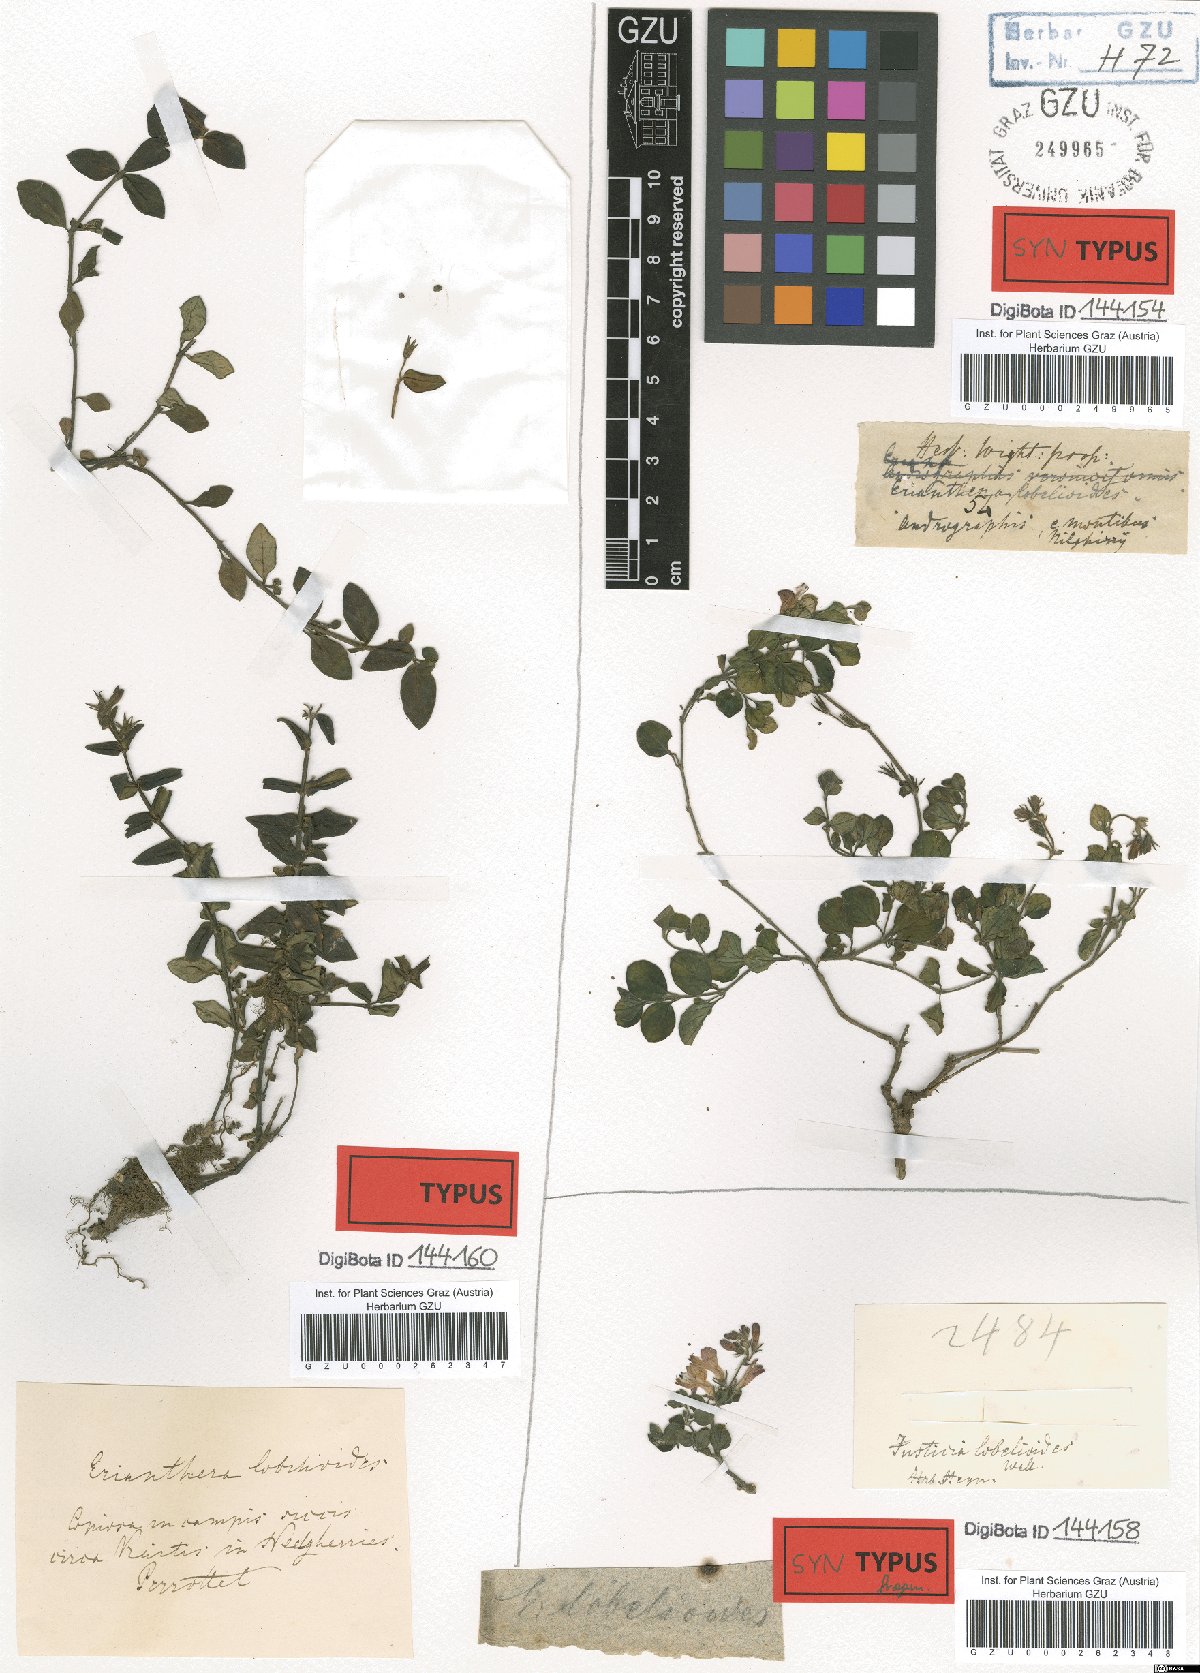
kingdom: Plantae
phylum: Tracheophyta
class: Magnoliopsida
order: Lamiales
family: Acanthaceae
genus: Andrographis
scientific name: Andrographis
